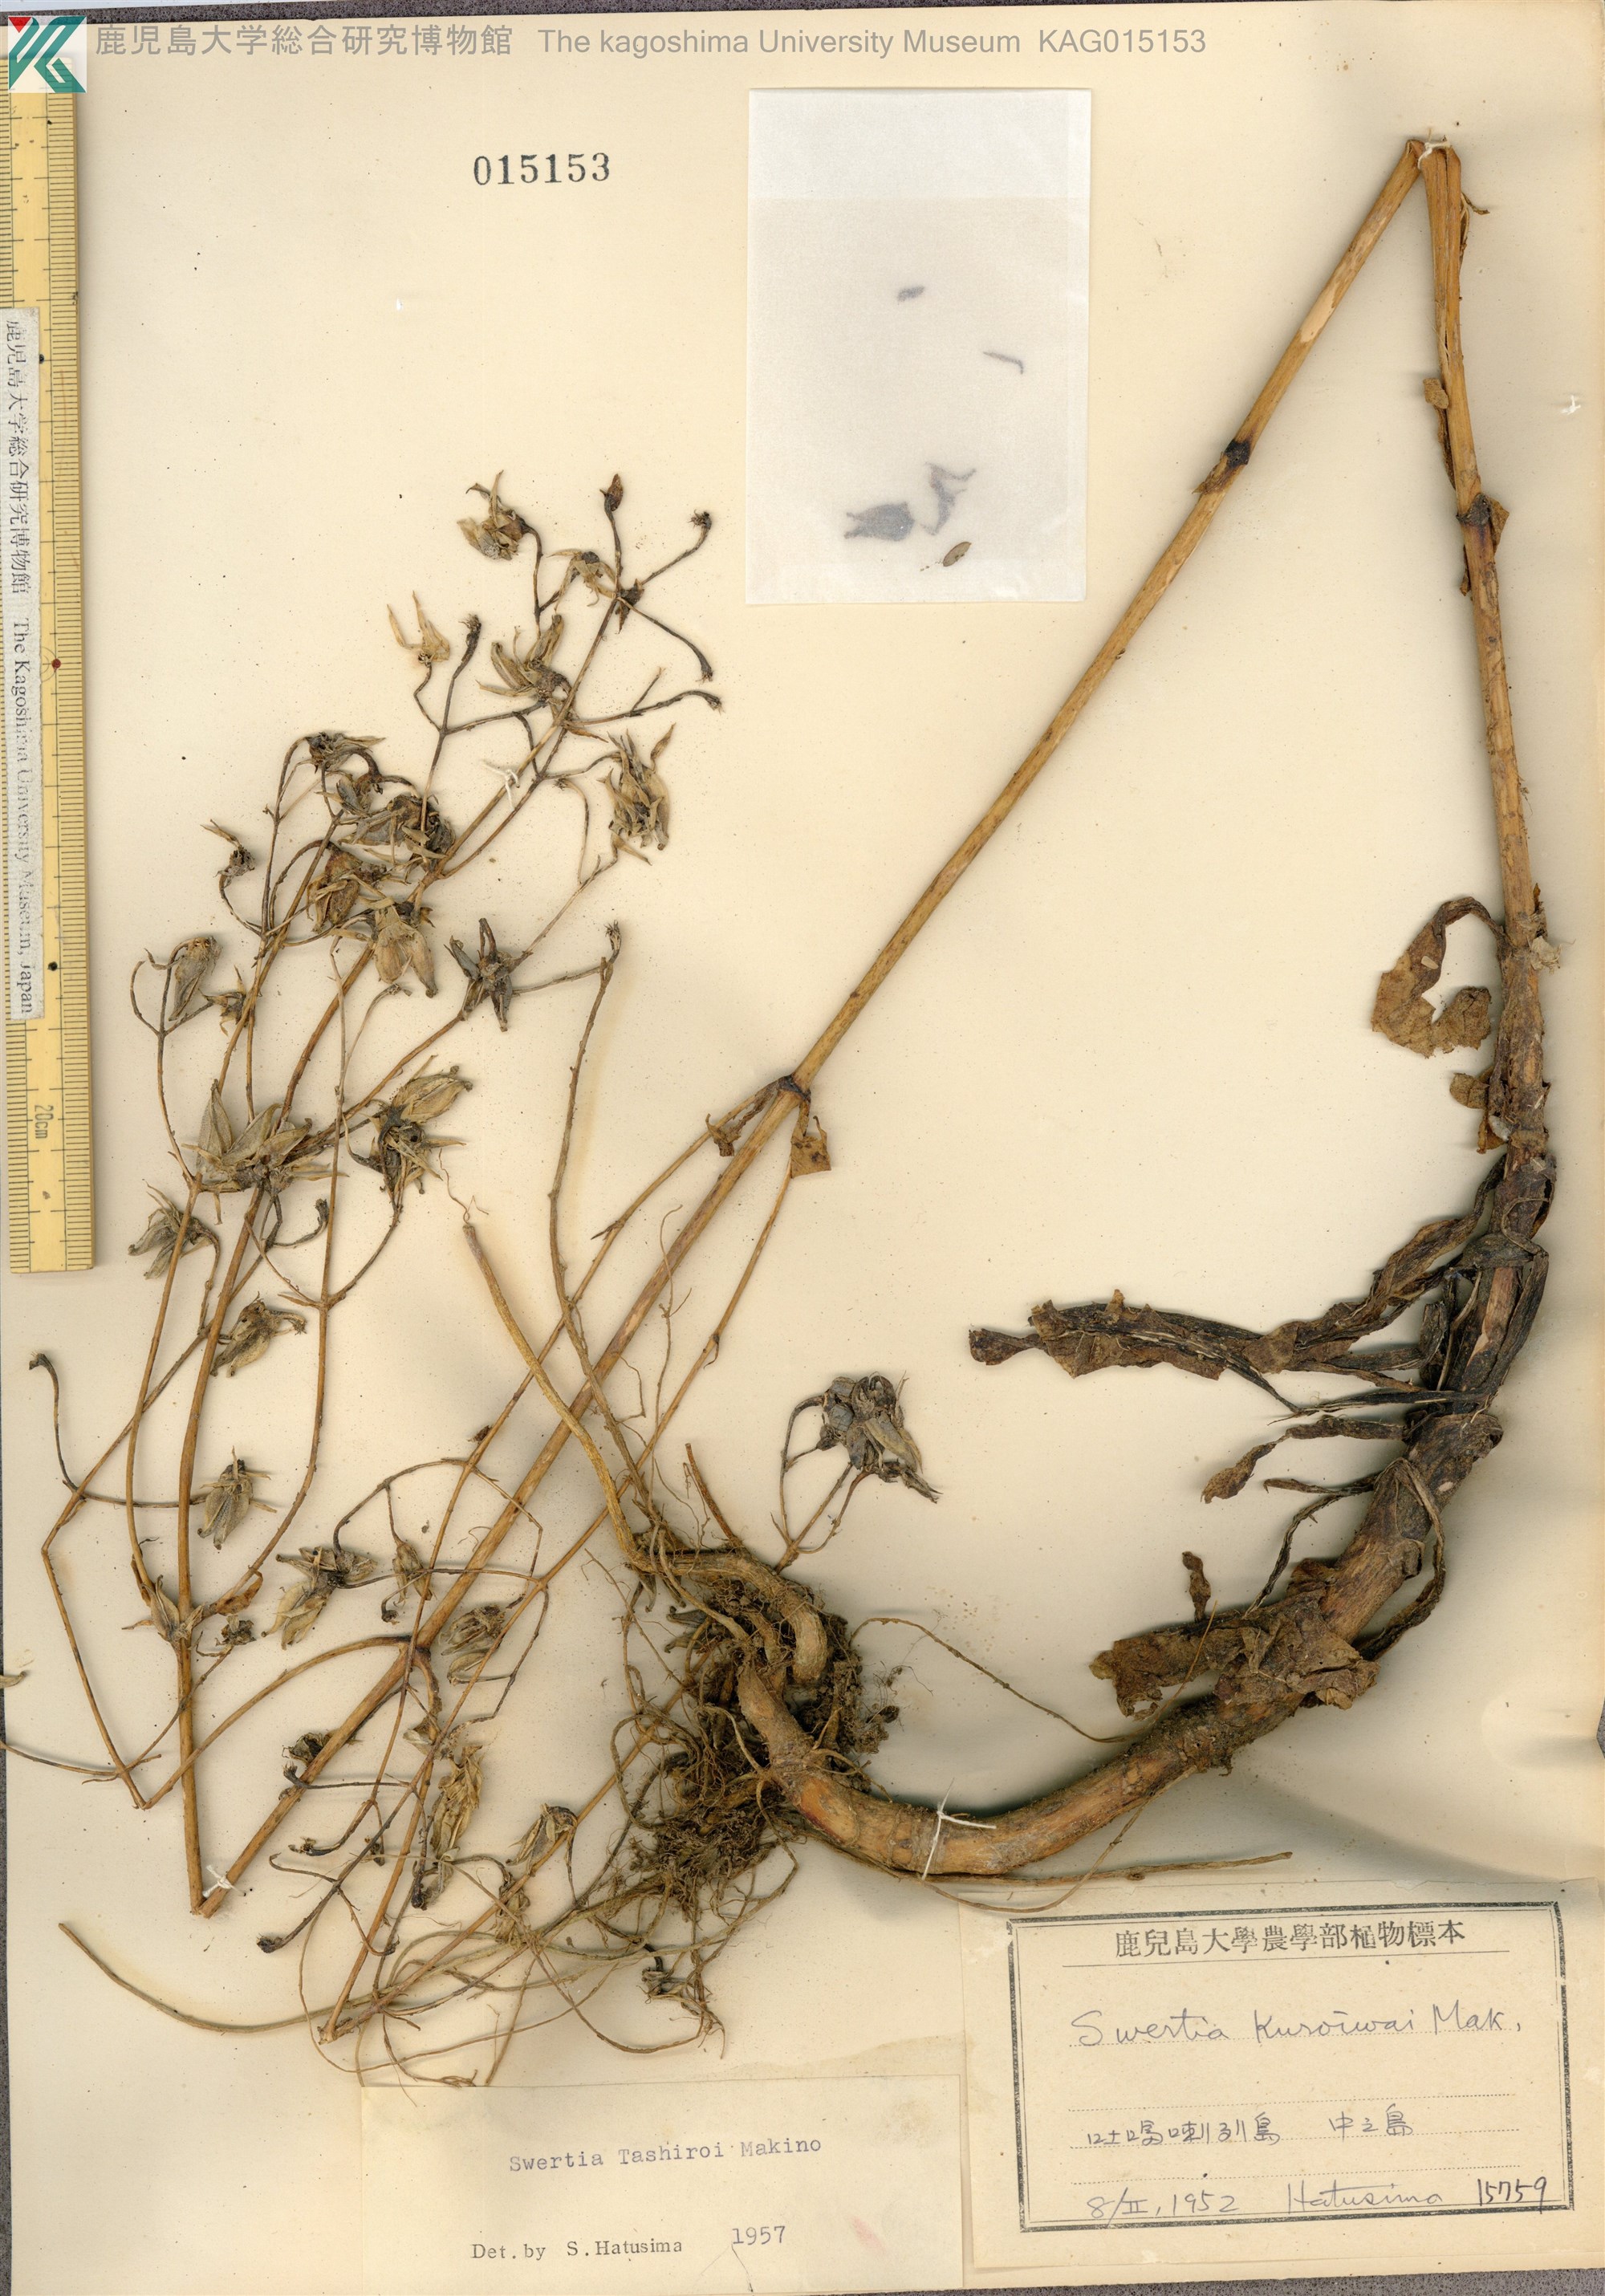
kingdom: Plantae
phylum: Tracheophyta
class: Magnoliopsida
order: Gentianales
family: Gentianaceae
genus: Swertia
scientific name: Swertia tashiroi
